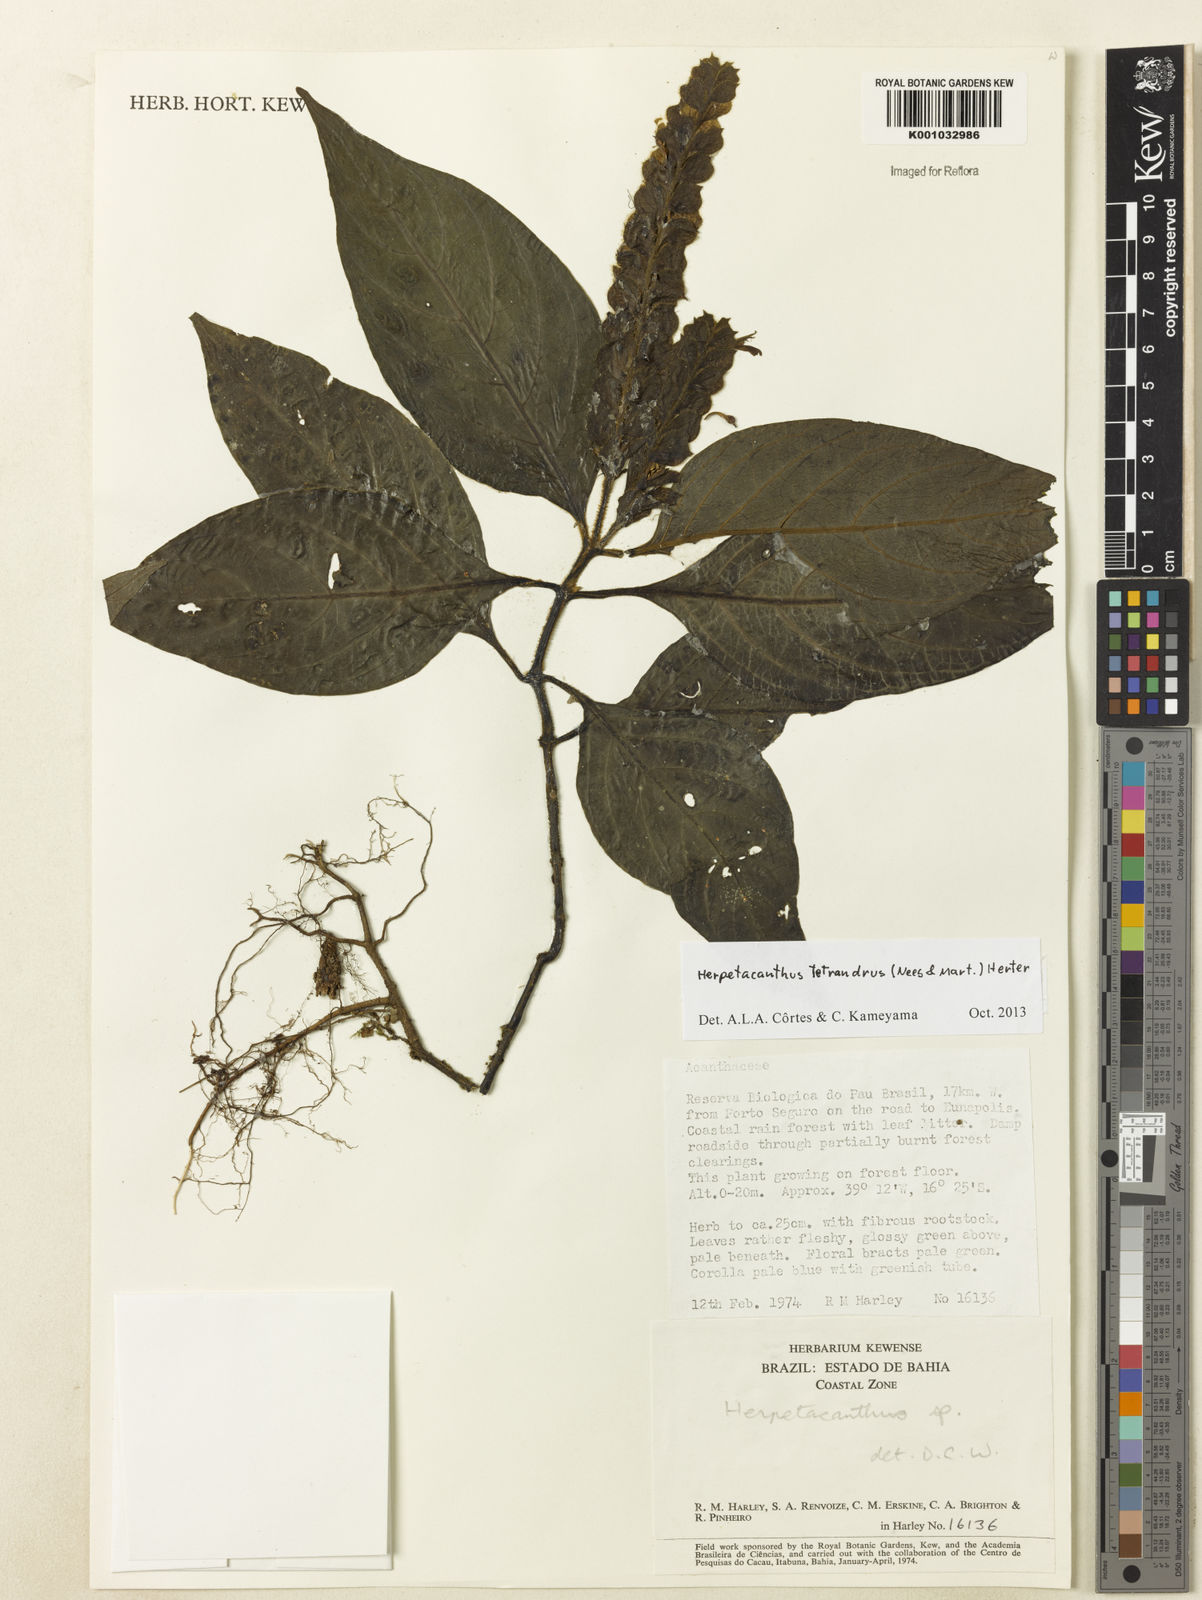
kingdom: Plantae
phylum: Tracheophyta
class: Magnoliopsida
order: Lamiales
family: Acanthaceae
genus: Herpetacanthus
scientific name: Herpetacanthus tetrandrus
